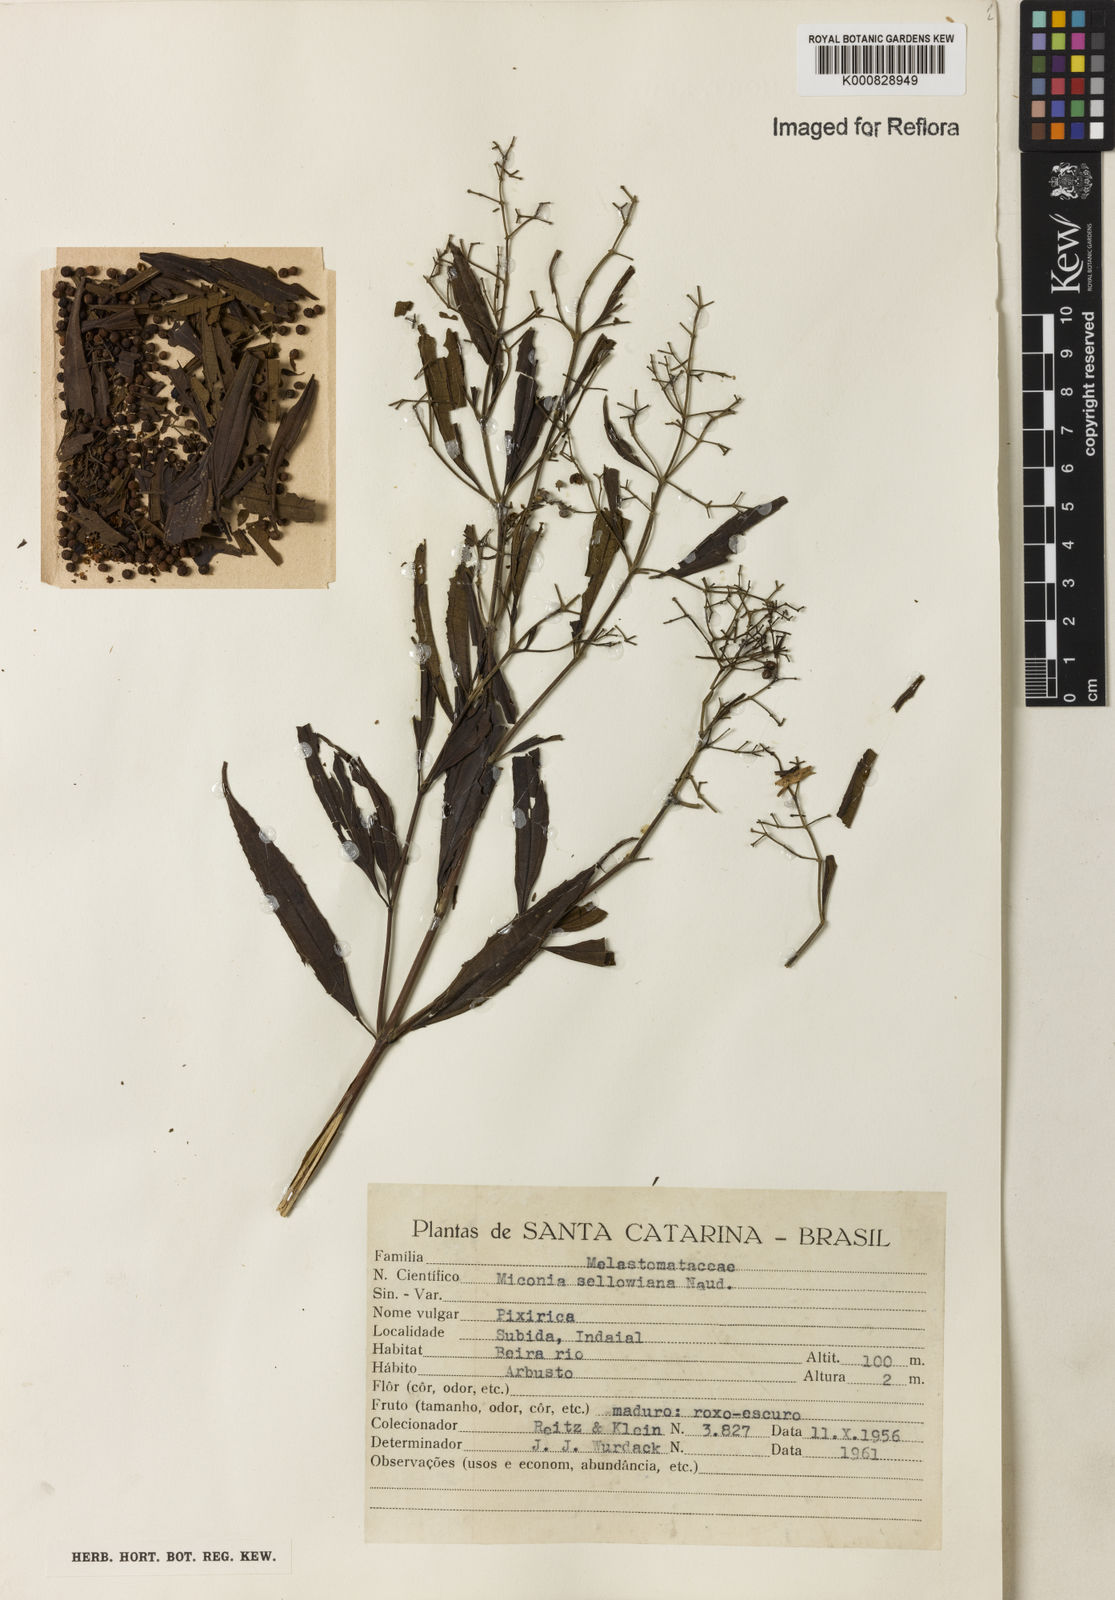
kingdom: Plantae
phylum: Tracheophyta
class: Magnoliopsida
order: Myrtales
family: Melastomataceae
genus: Miconia
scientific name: Miconia sellowiana
